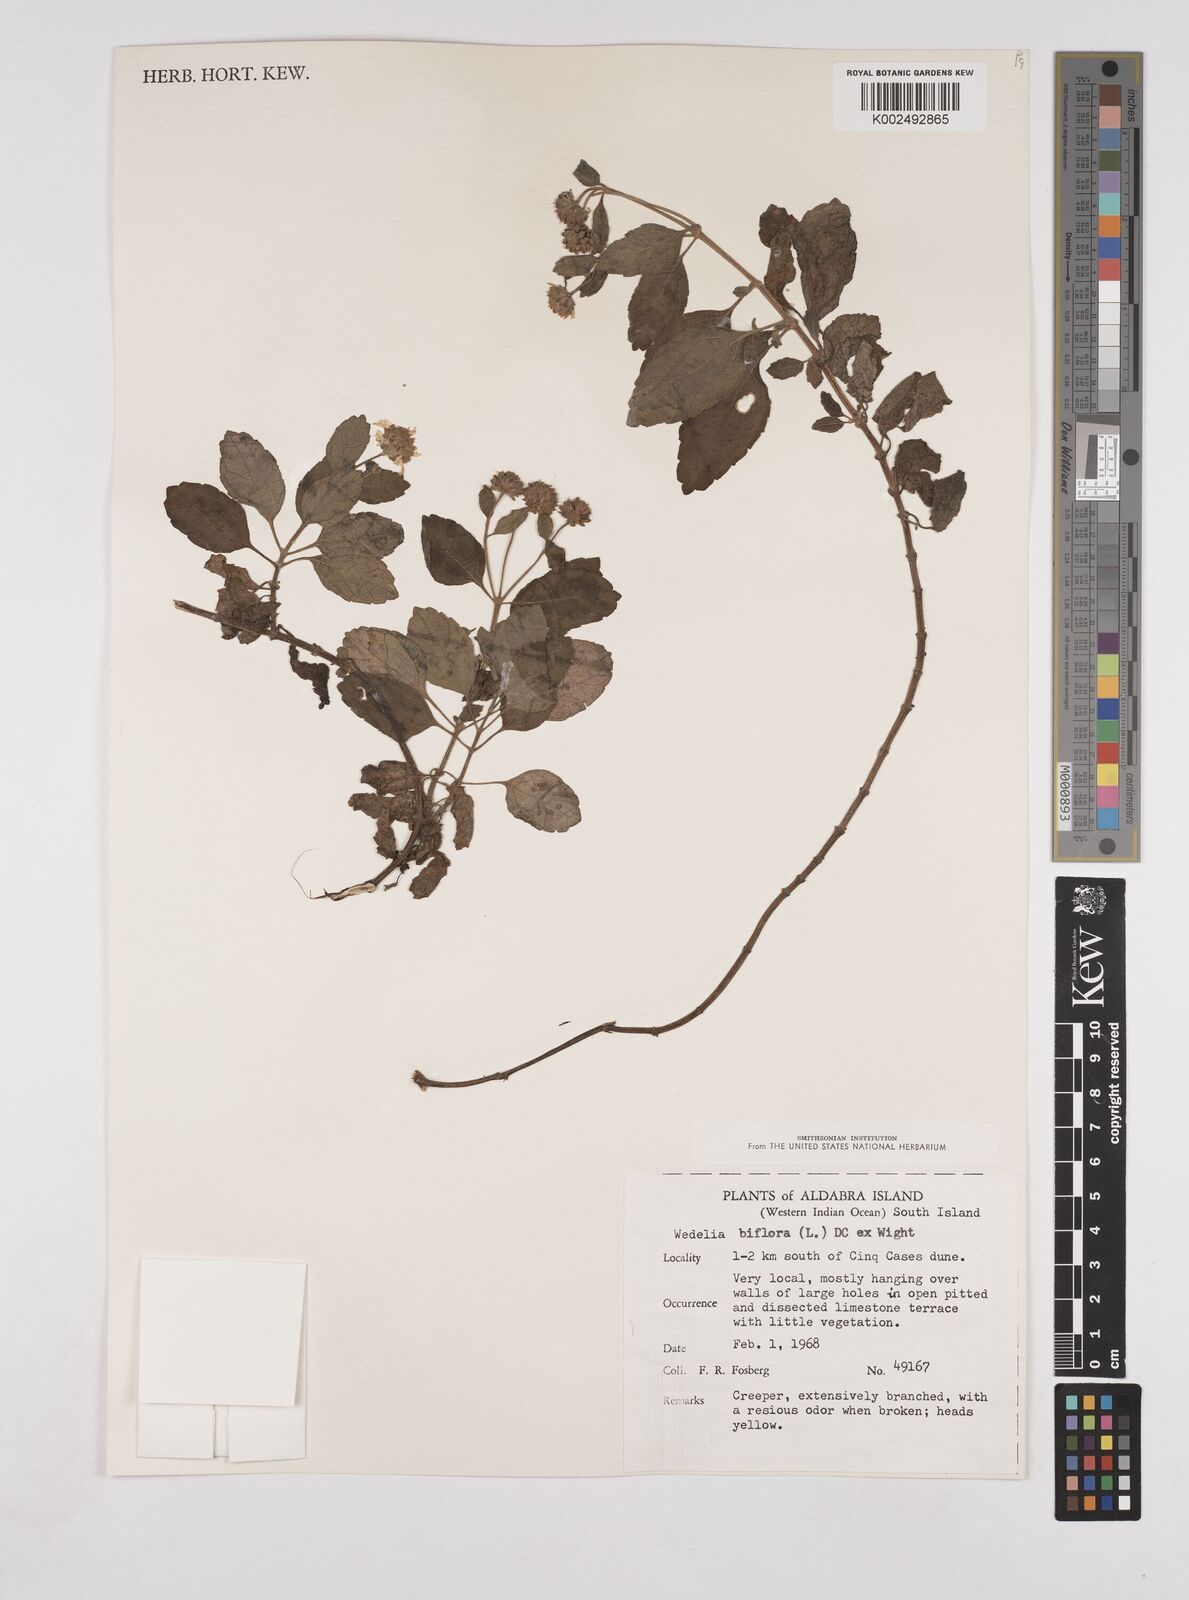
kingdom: Plantae
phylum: Tracheophyta
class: Magnoliopsida
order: Asterales
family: Asteraceae
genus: Wollastonia
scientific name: Wollastonia biflora
